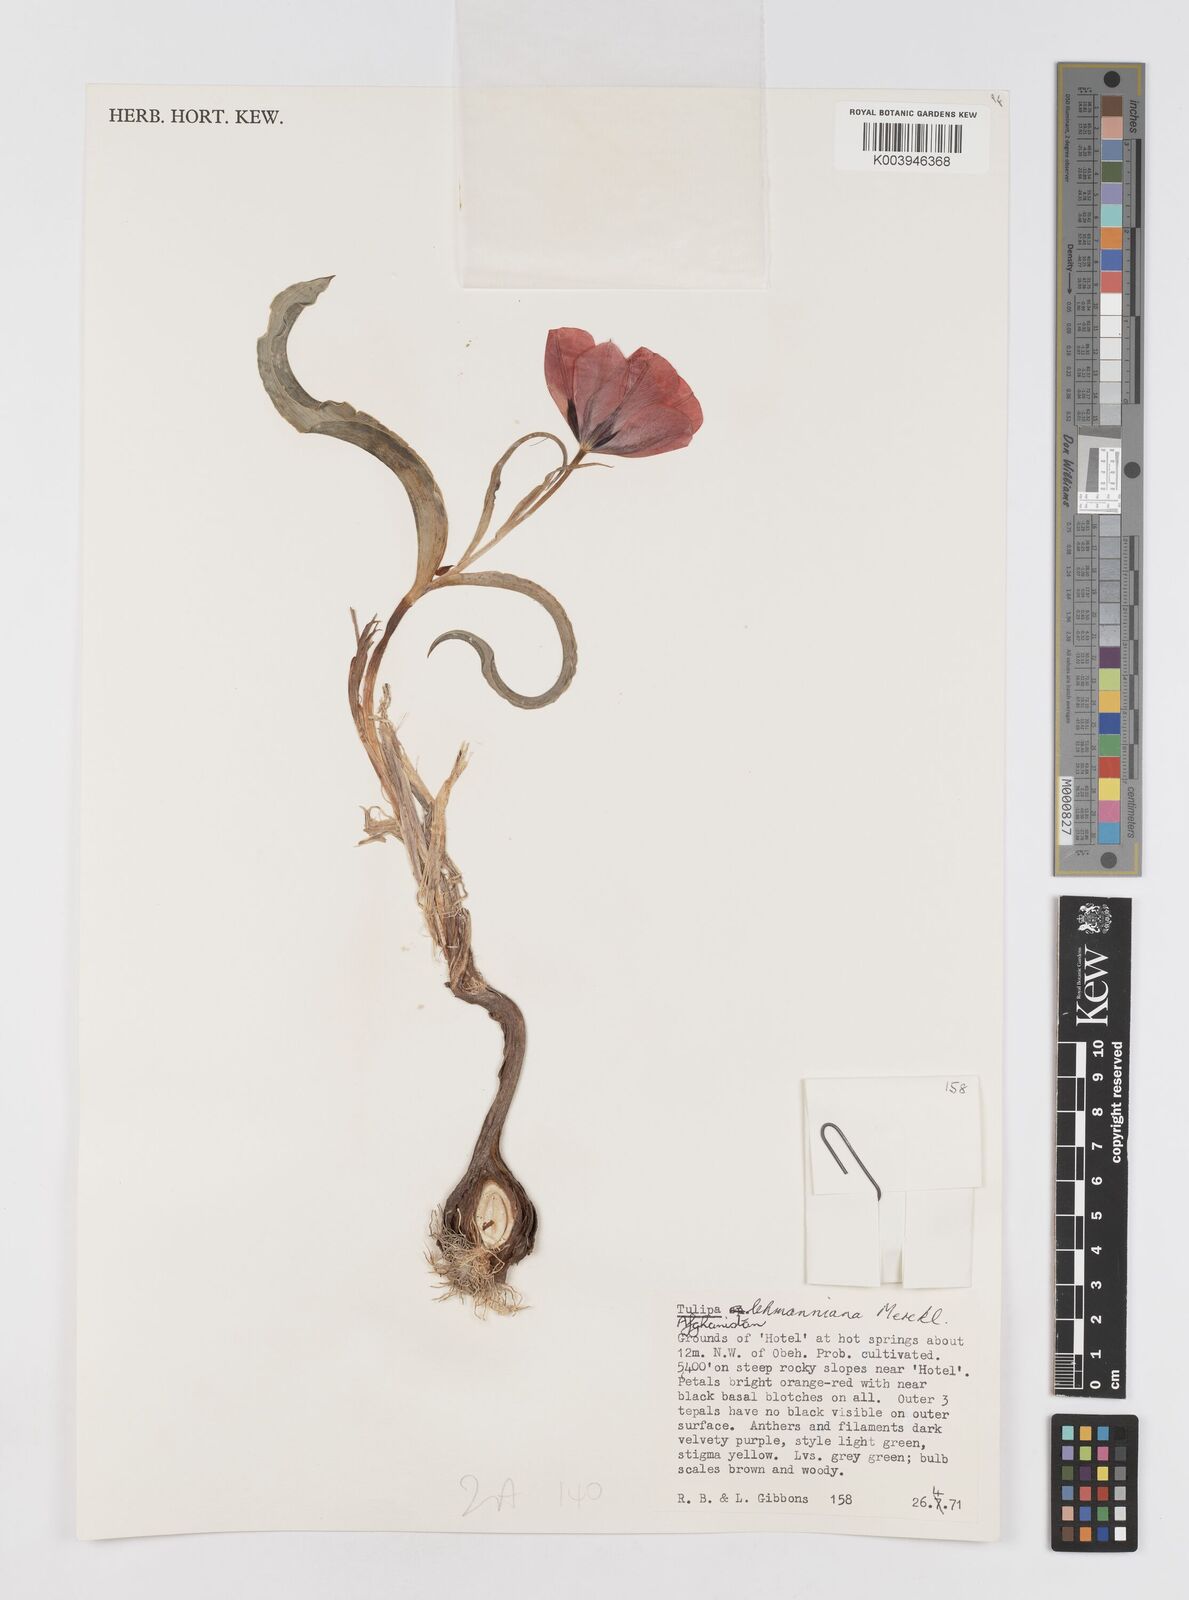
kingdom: Plantae
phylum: Tracheophyta
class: Liliopsida
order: Liliales
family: Liliaceae
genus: Tulipa
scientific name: Tulipa lehmanniana
